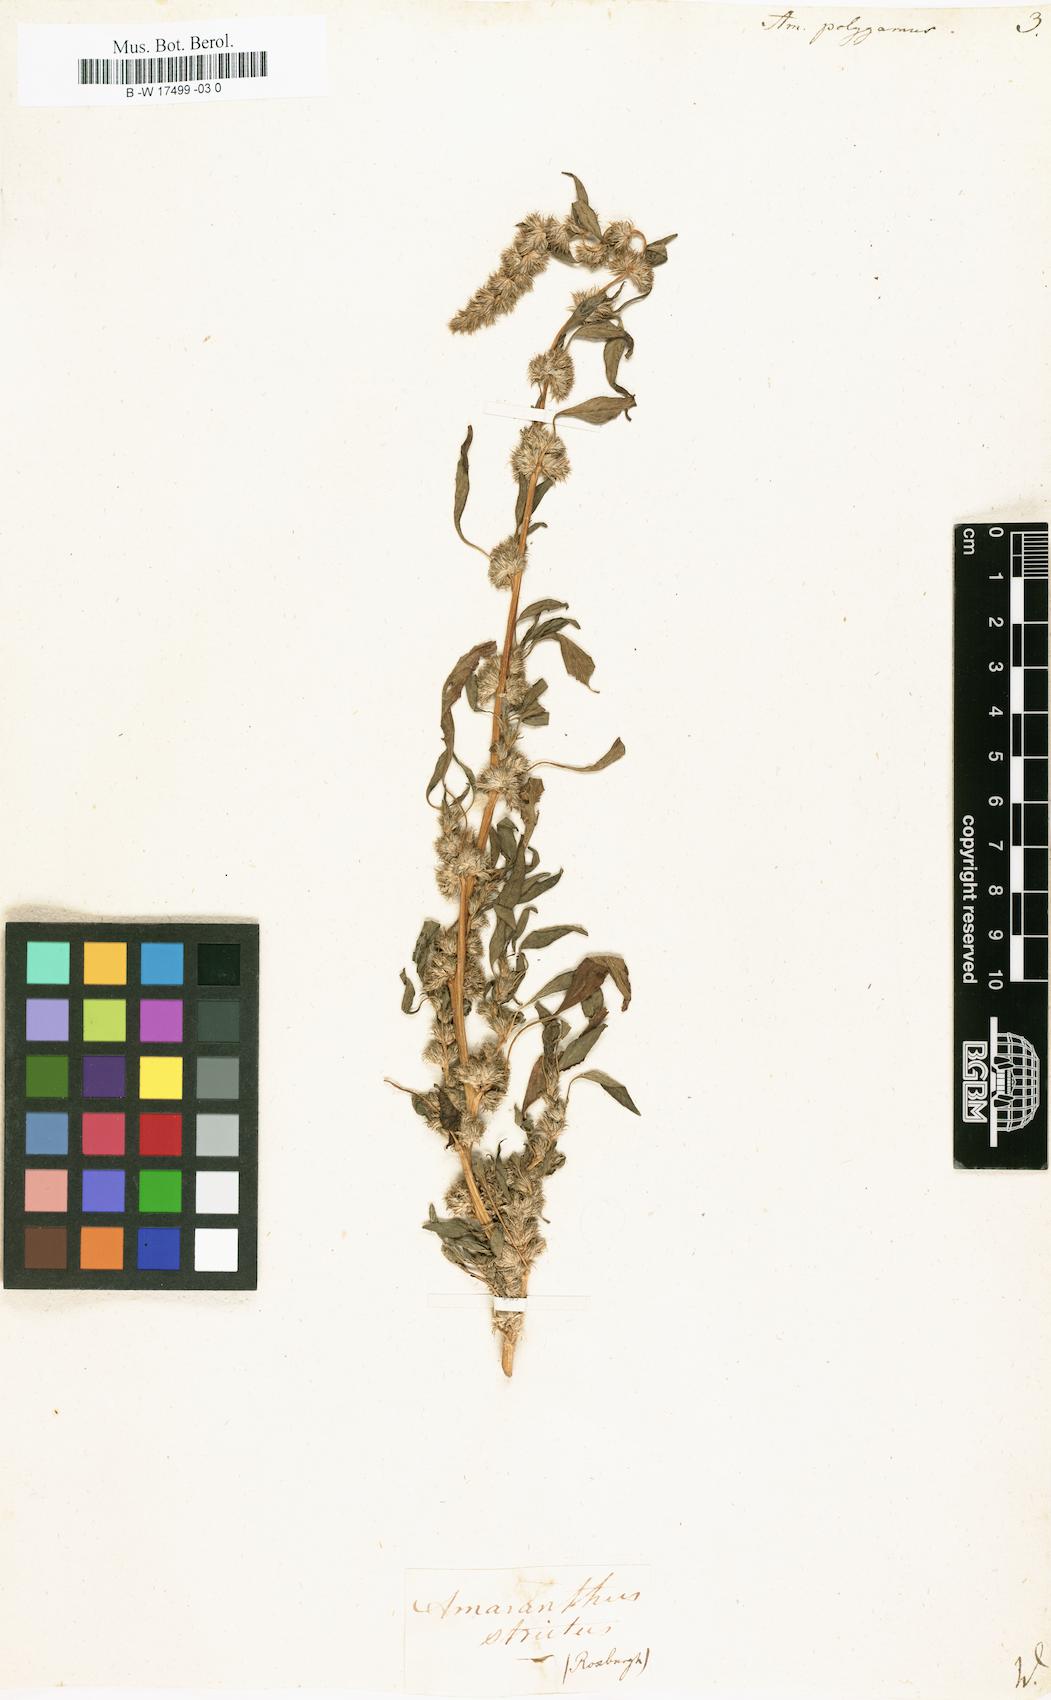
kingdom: Plantae
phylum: Tracheophyta
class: Magnoliopsida
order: Caryophyllales
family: Amaranthaceae
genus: Amaranthus
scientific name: Amaranthus tricolor
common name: Joseph's-coat
